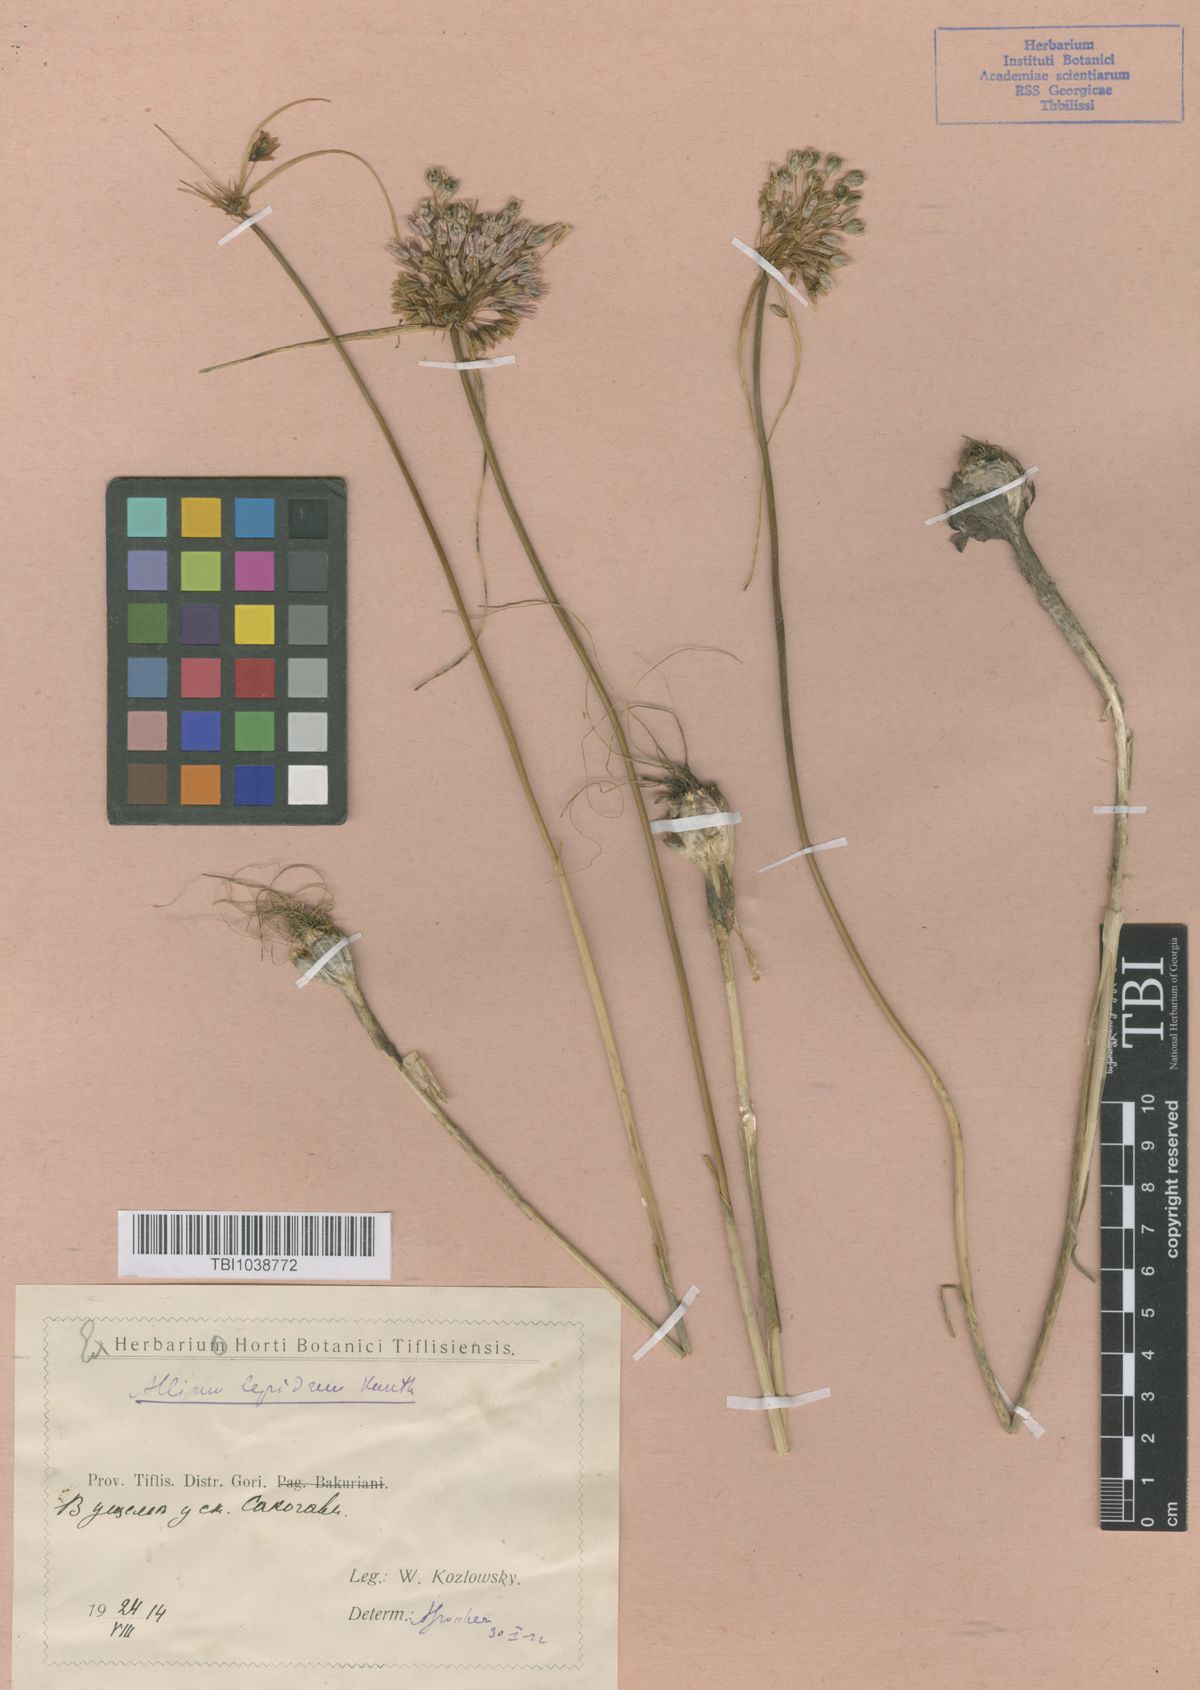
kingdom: Plantae
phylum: Tracheophyta
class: Liliopsida
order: Asparagales
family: Amaryllidaceae
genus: Allium
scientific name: Allium kunthianum
